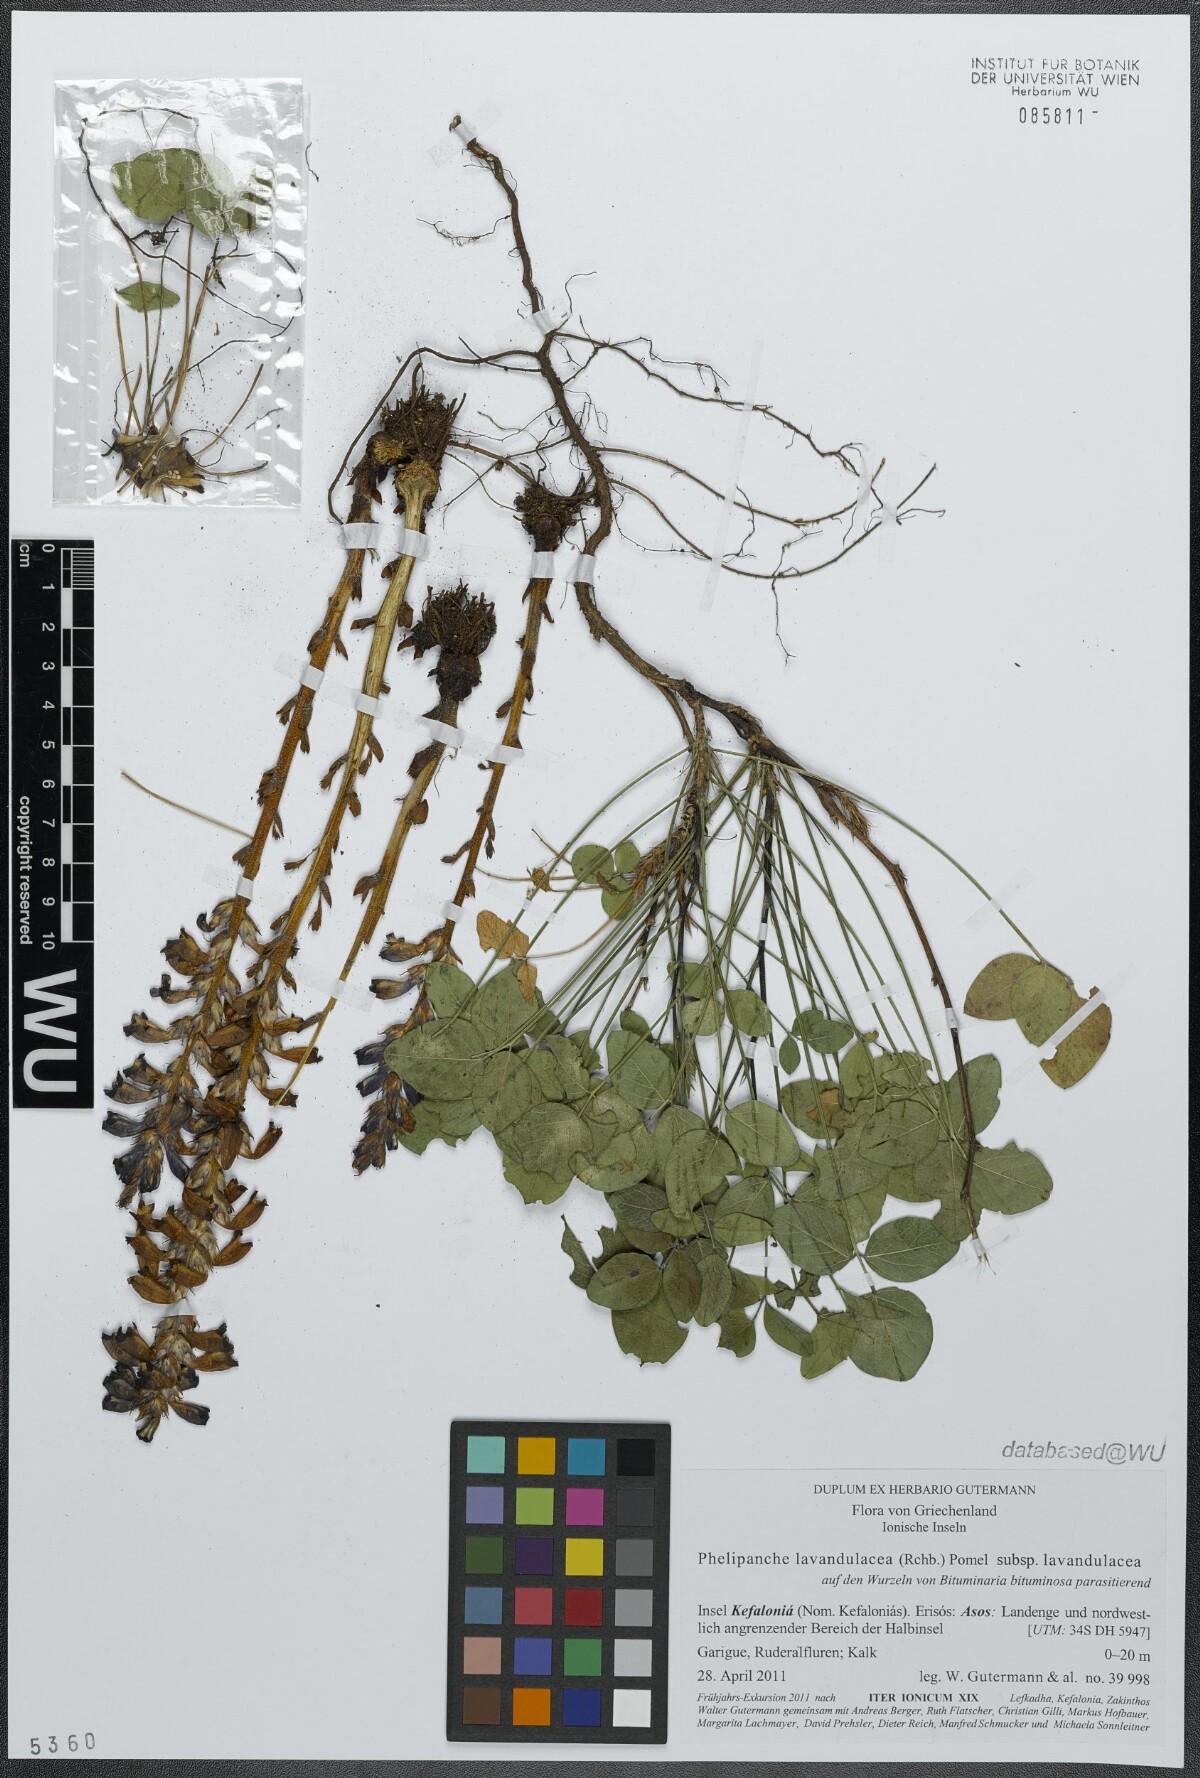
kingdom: Plantae
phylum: Tracheophyta
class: Magnoliopsida
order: Lamiales
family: Orobanchaceae
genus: Phelipanche
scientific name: Phelipanche lavandulacea
